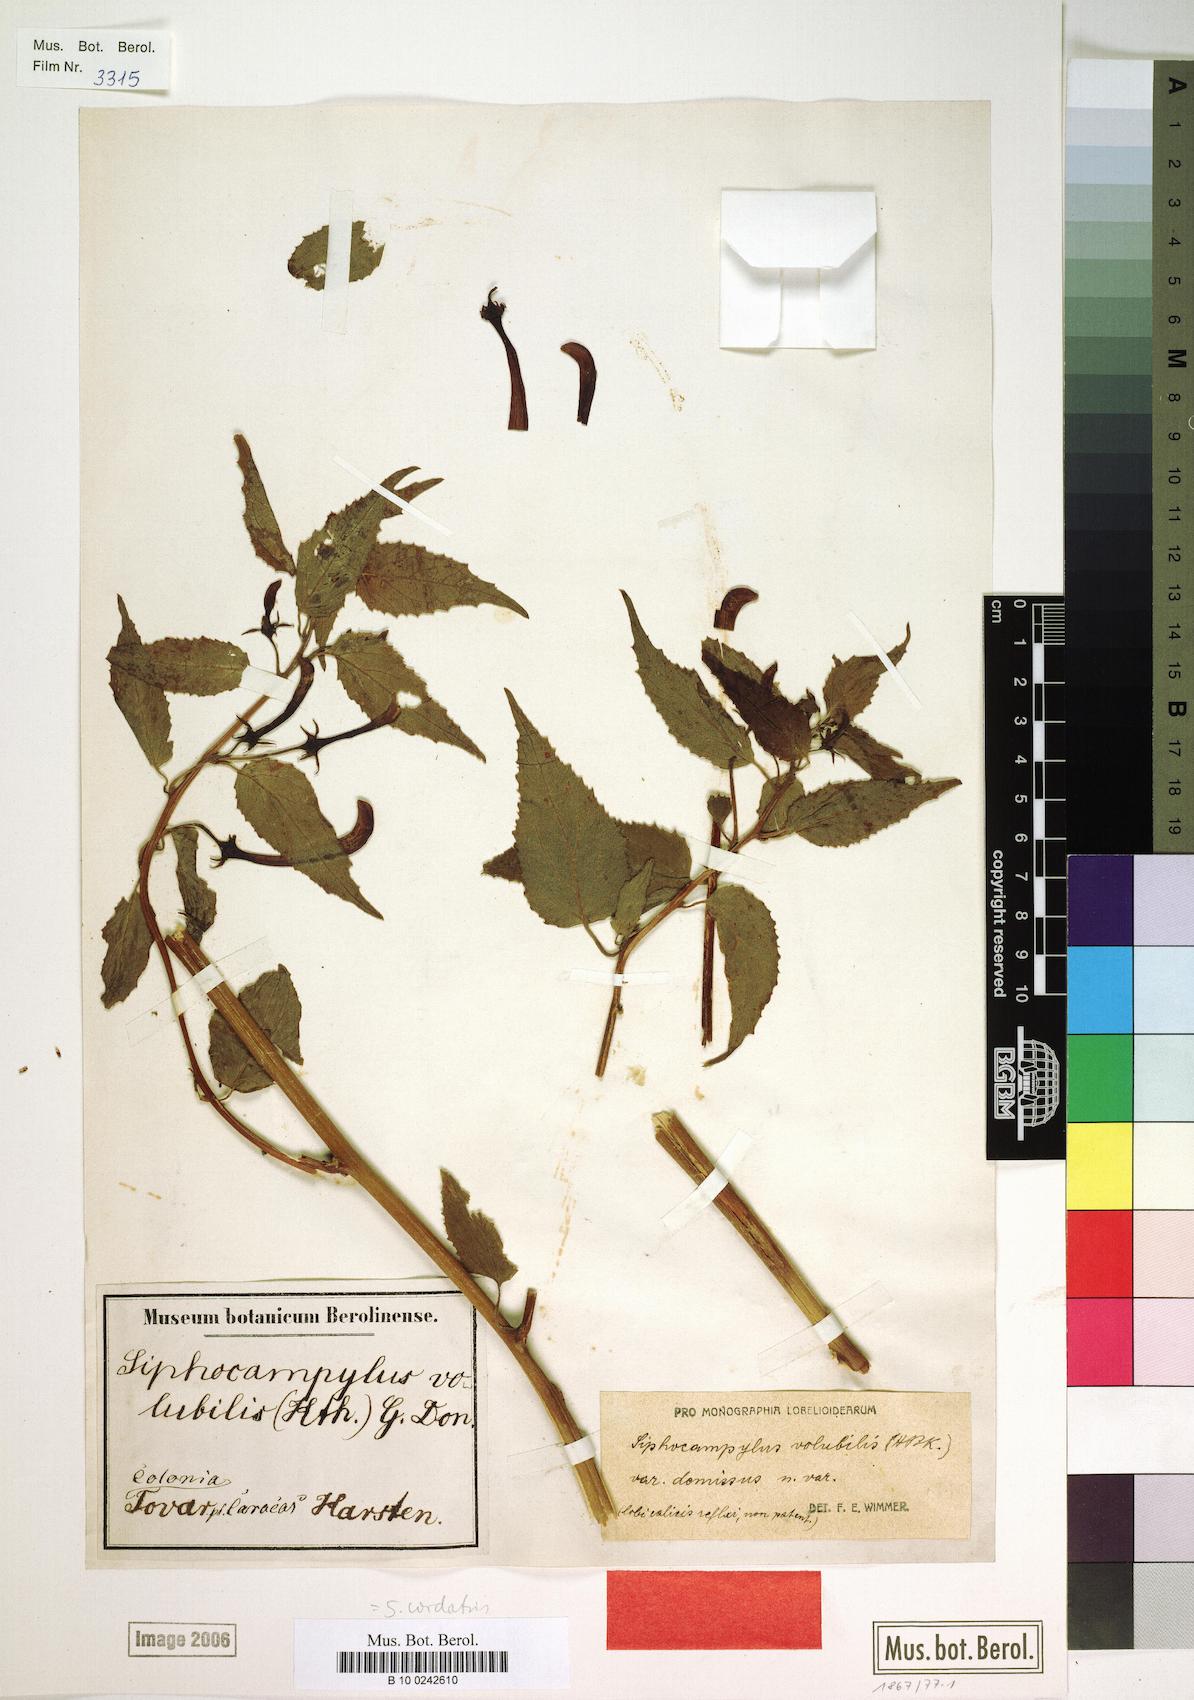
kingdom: Plantae
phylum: Tracheophyta
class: Magnoliopsida
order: Asterales
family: Campanulaceae
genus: Siphocampylus
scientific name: Siphocampylus cordatus
